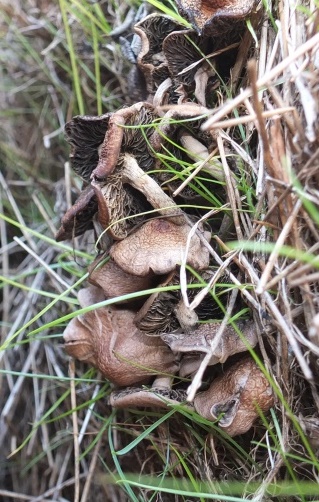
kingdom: Fungi
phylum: Basidiomycota
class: Agaricomycetes
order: Agaricales
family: Bolbitiaceae
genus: Panaeolus
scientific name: Panaeolus cinctulus
